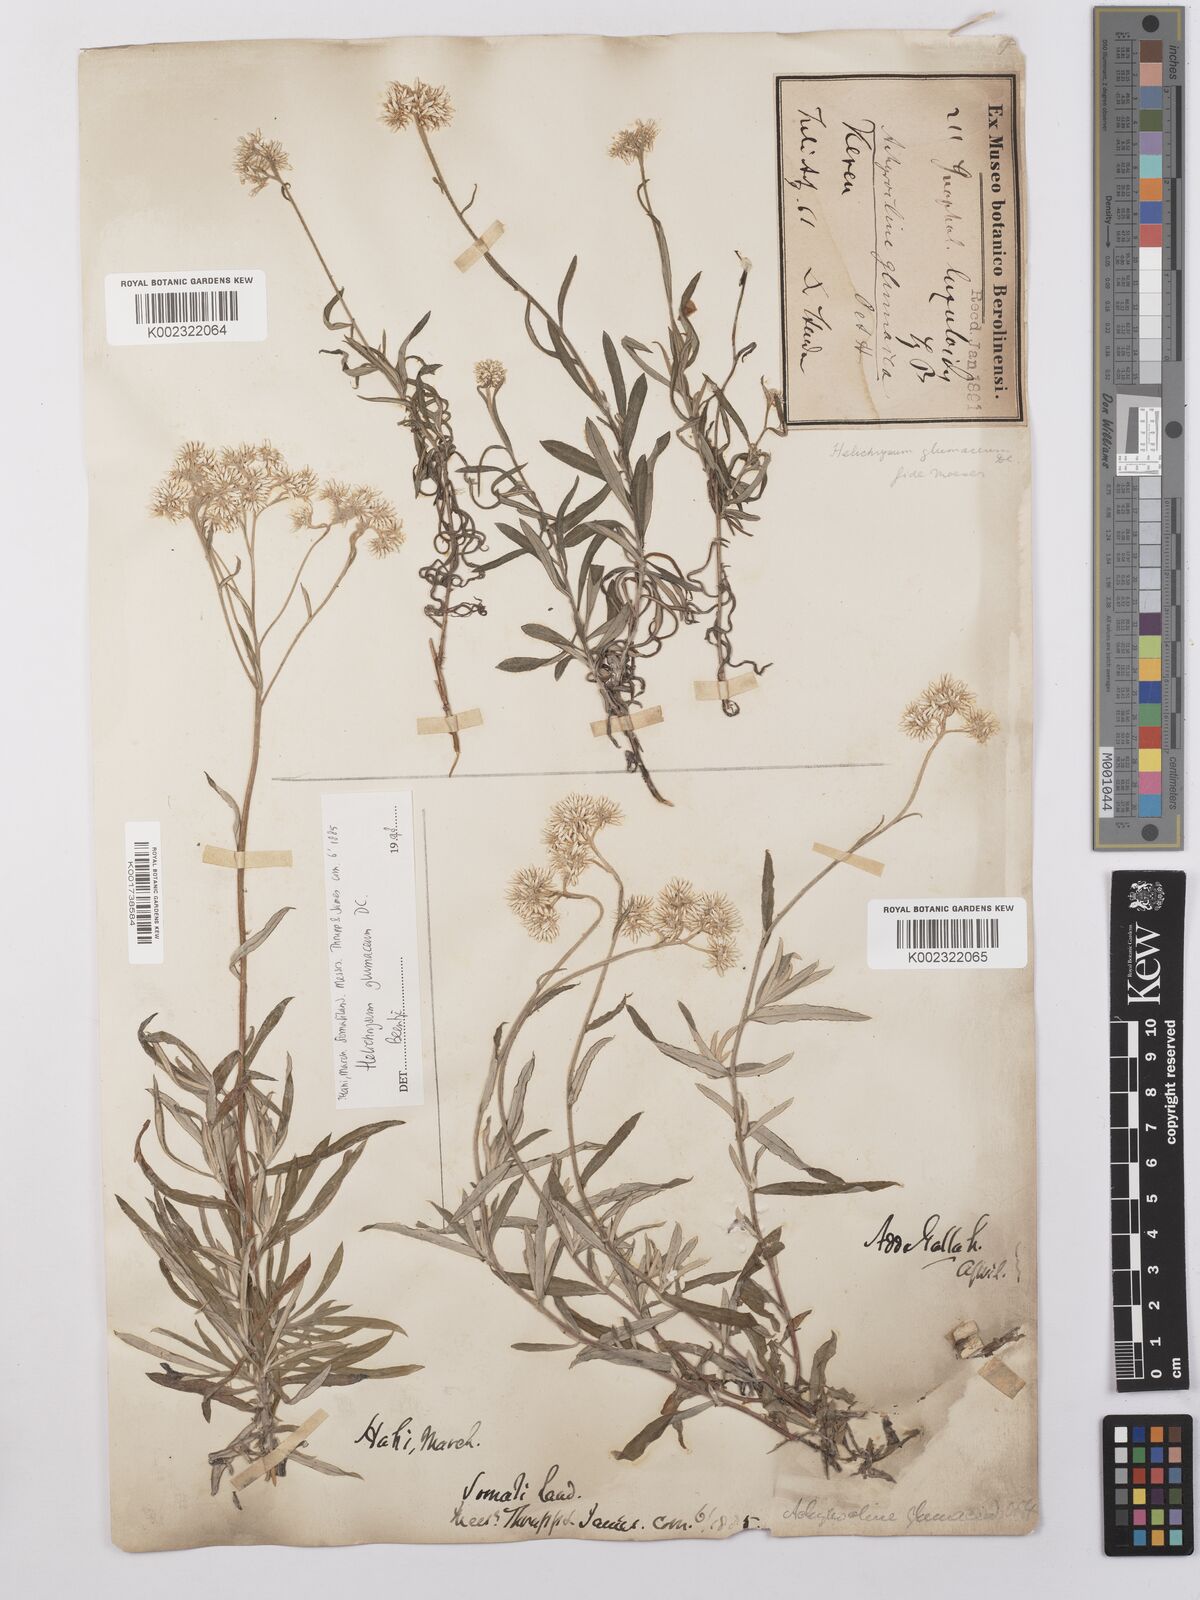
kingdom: Plantae
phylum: Tracheophyta
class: Magnoliopsida
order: Asterales
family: Asteraceae
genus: Helichrysum
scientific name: Helichrysum glumaceum
